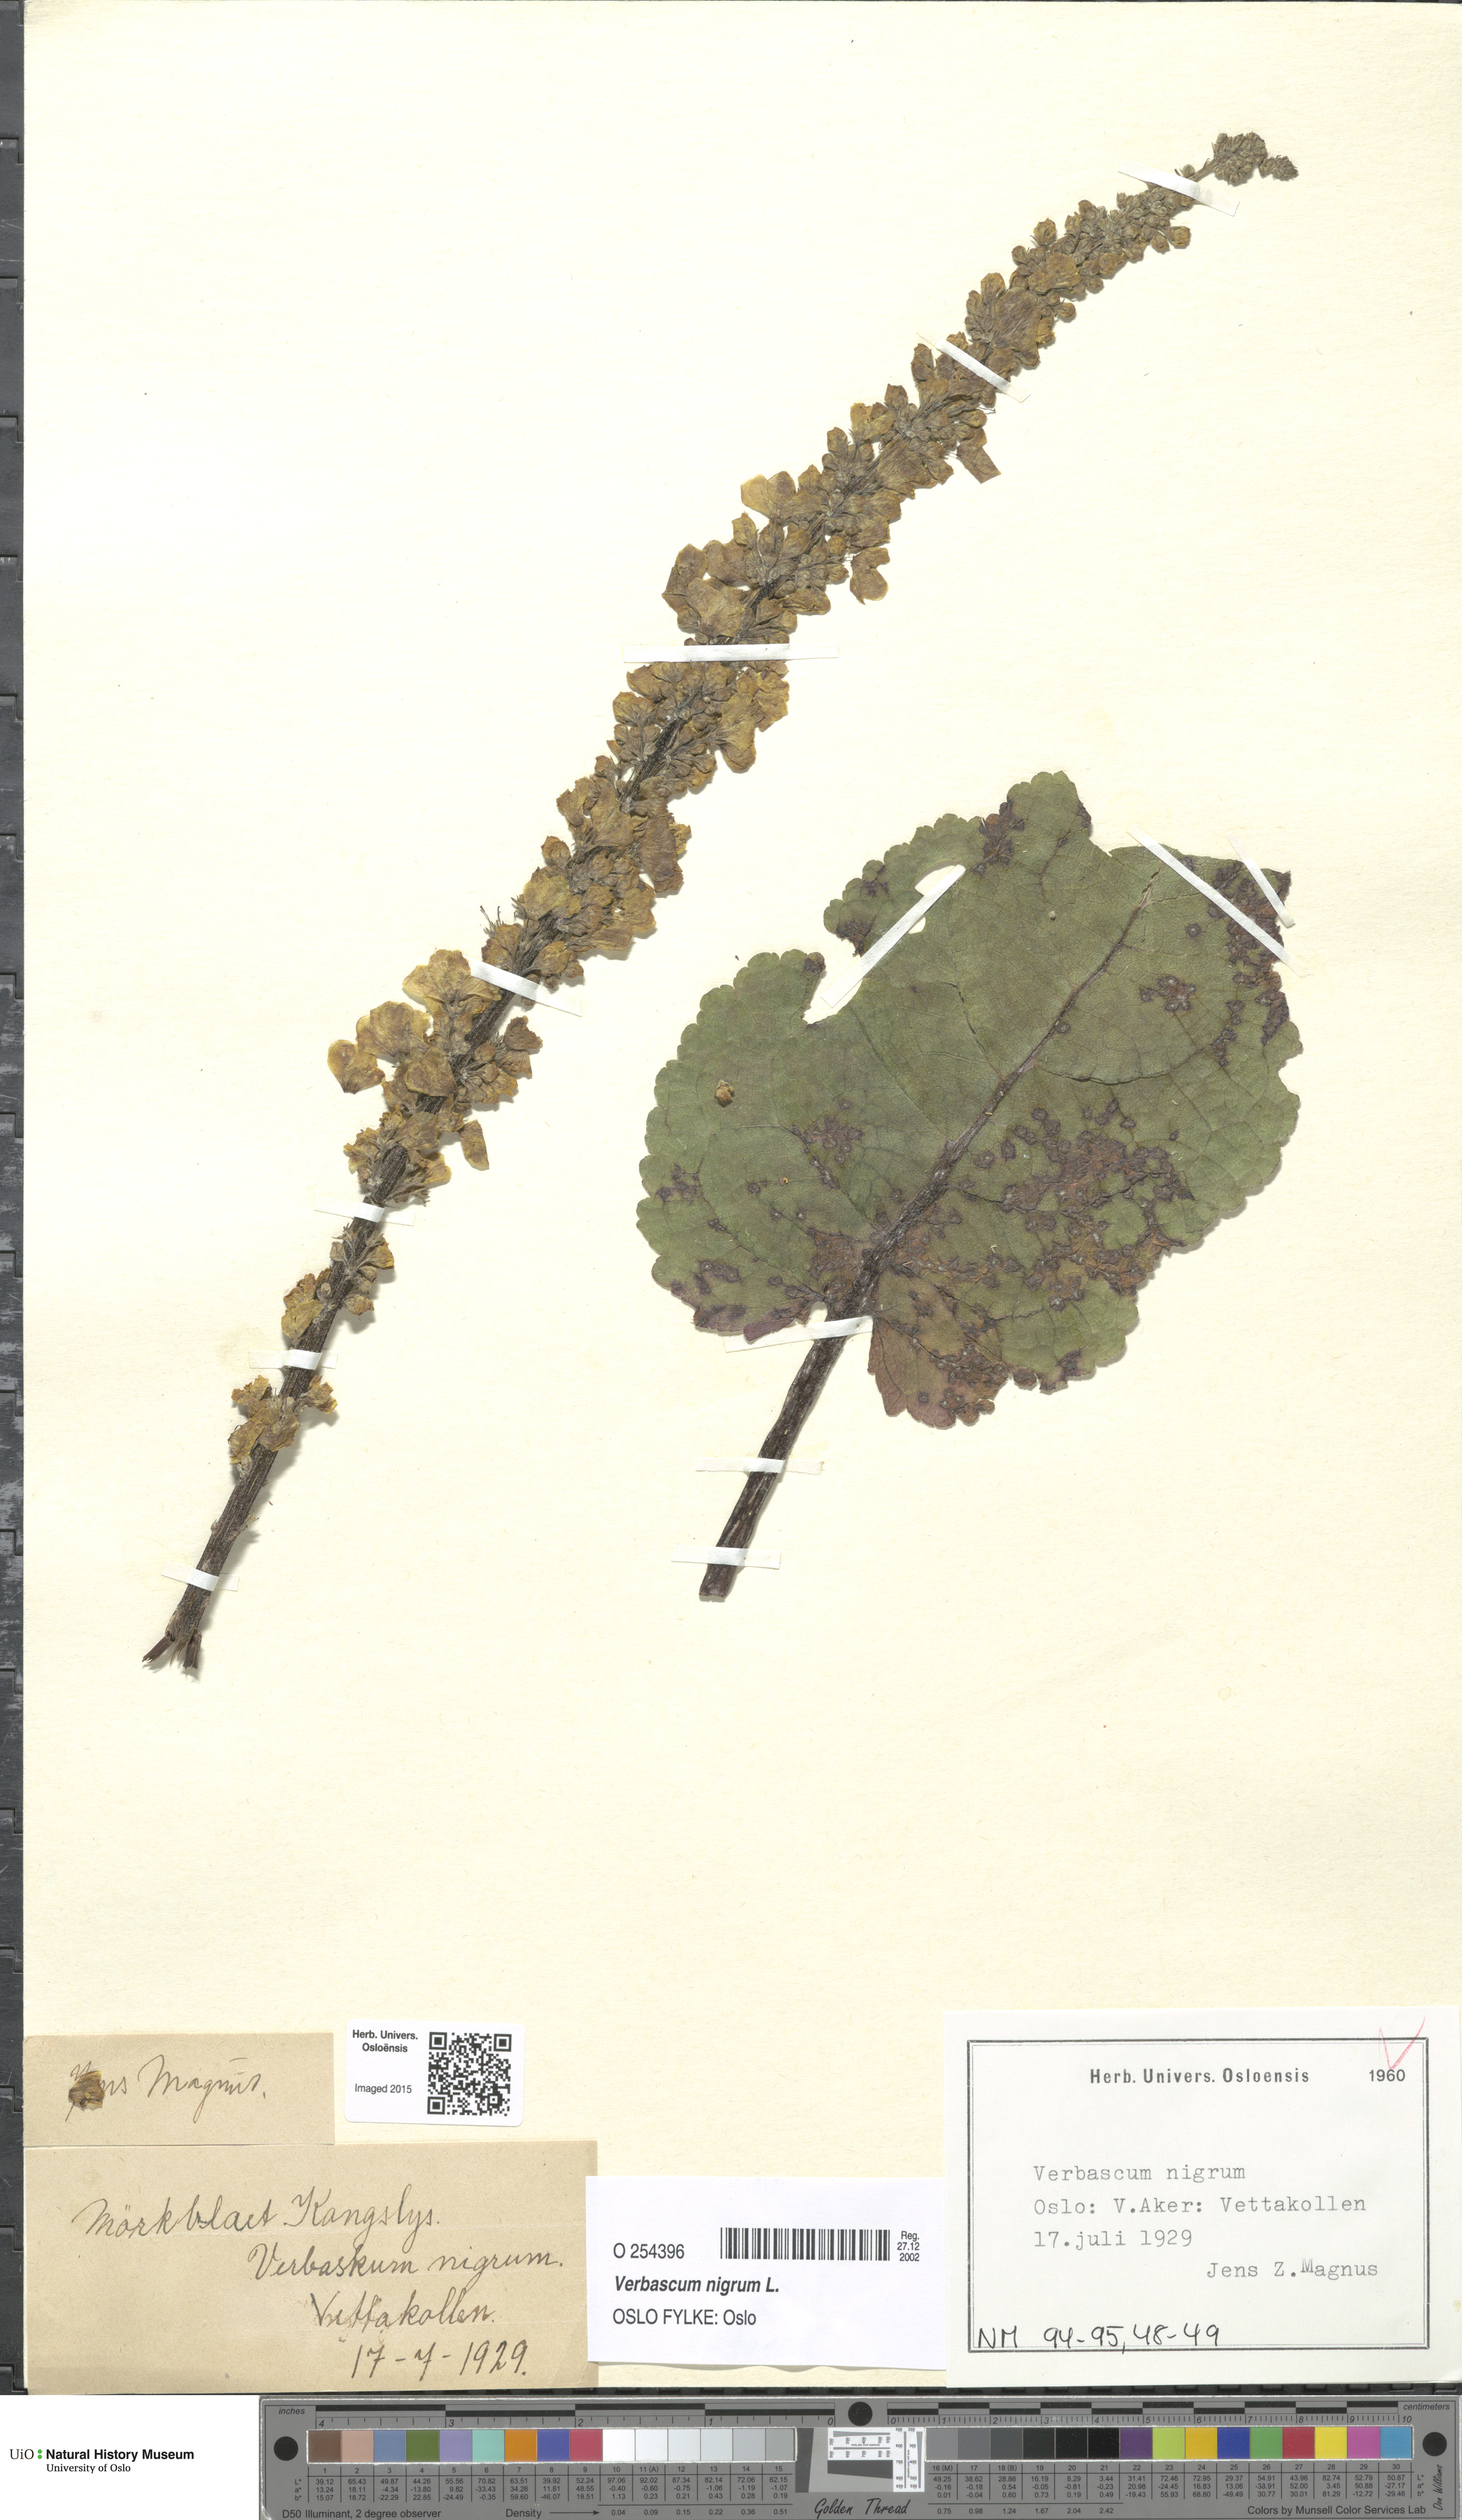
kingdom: Plantae
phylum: Tracheophyta
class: Magnoliopsida
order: Lamiales
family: Scrophulariaceae
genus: Verbascum
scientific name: Verbascum nigrum
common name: Dark mullein
